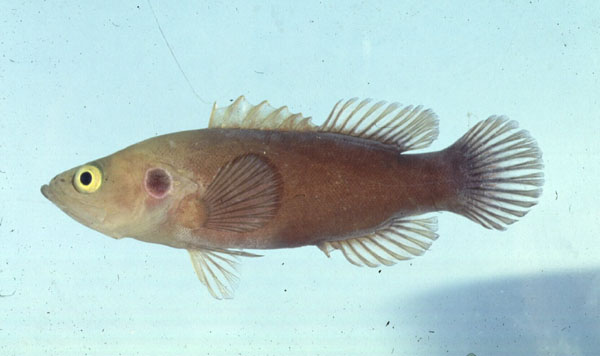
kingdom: Animalia
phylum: Chordata
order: Perciformes
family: Serranidae
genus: Grammistops
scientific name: Grammistops ocellatus
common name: Ocellate soapfish
